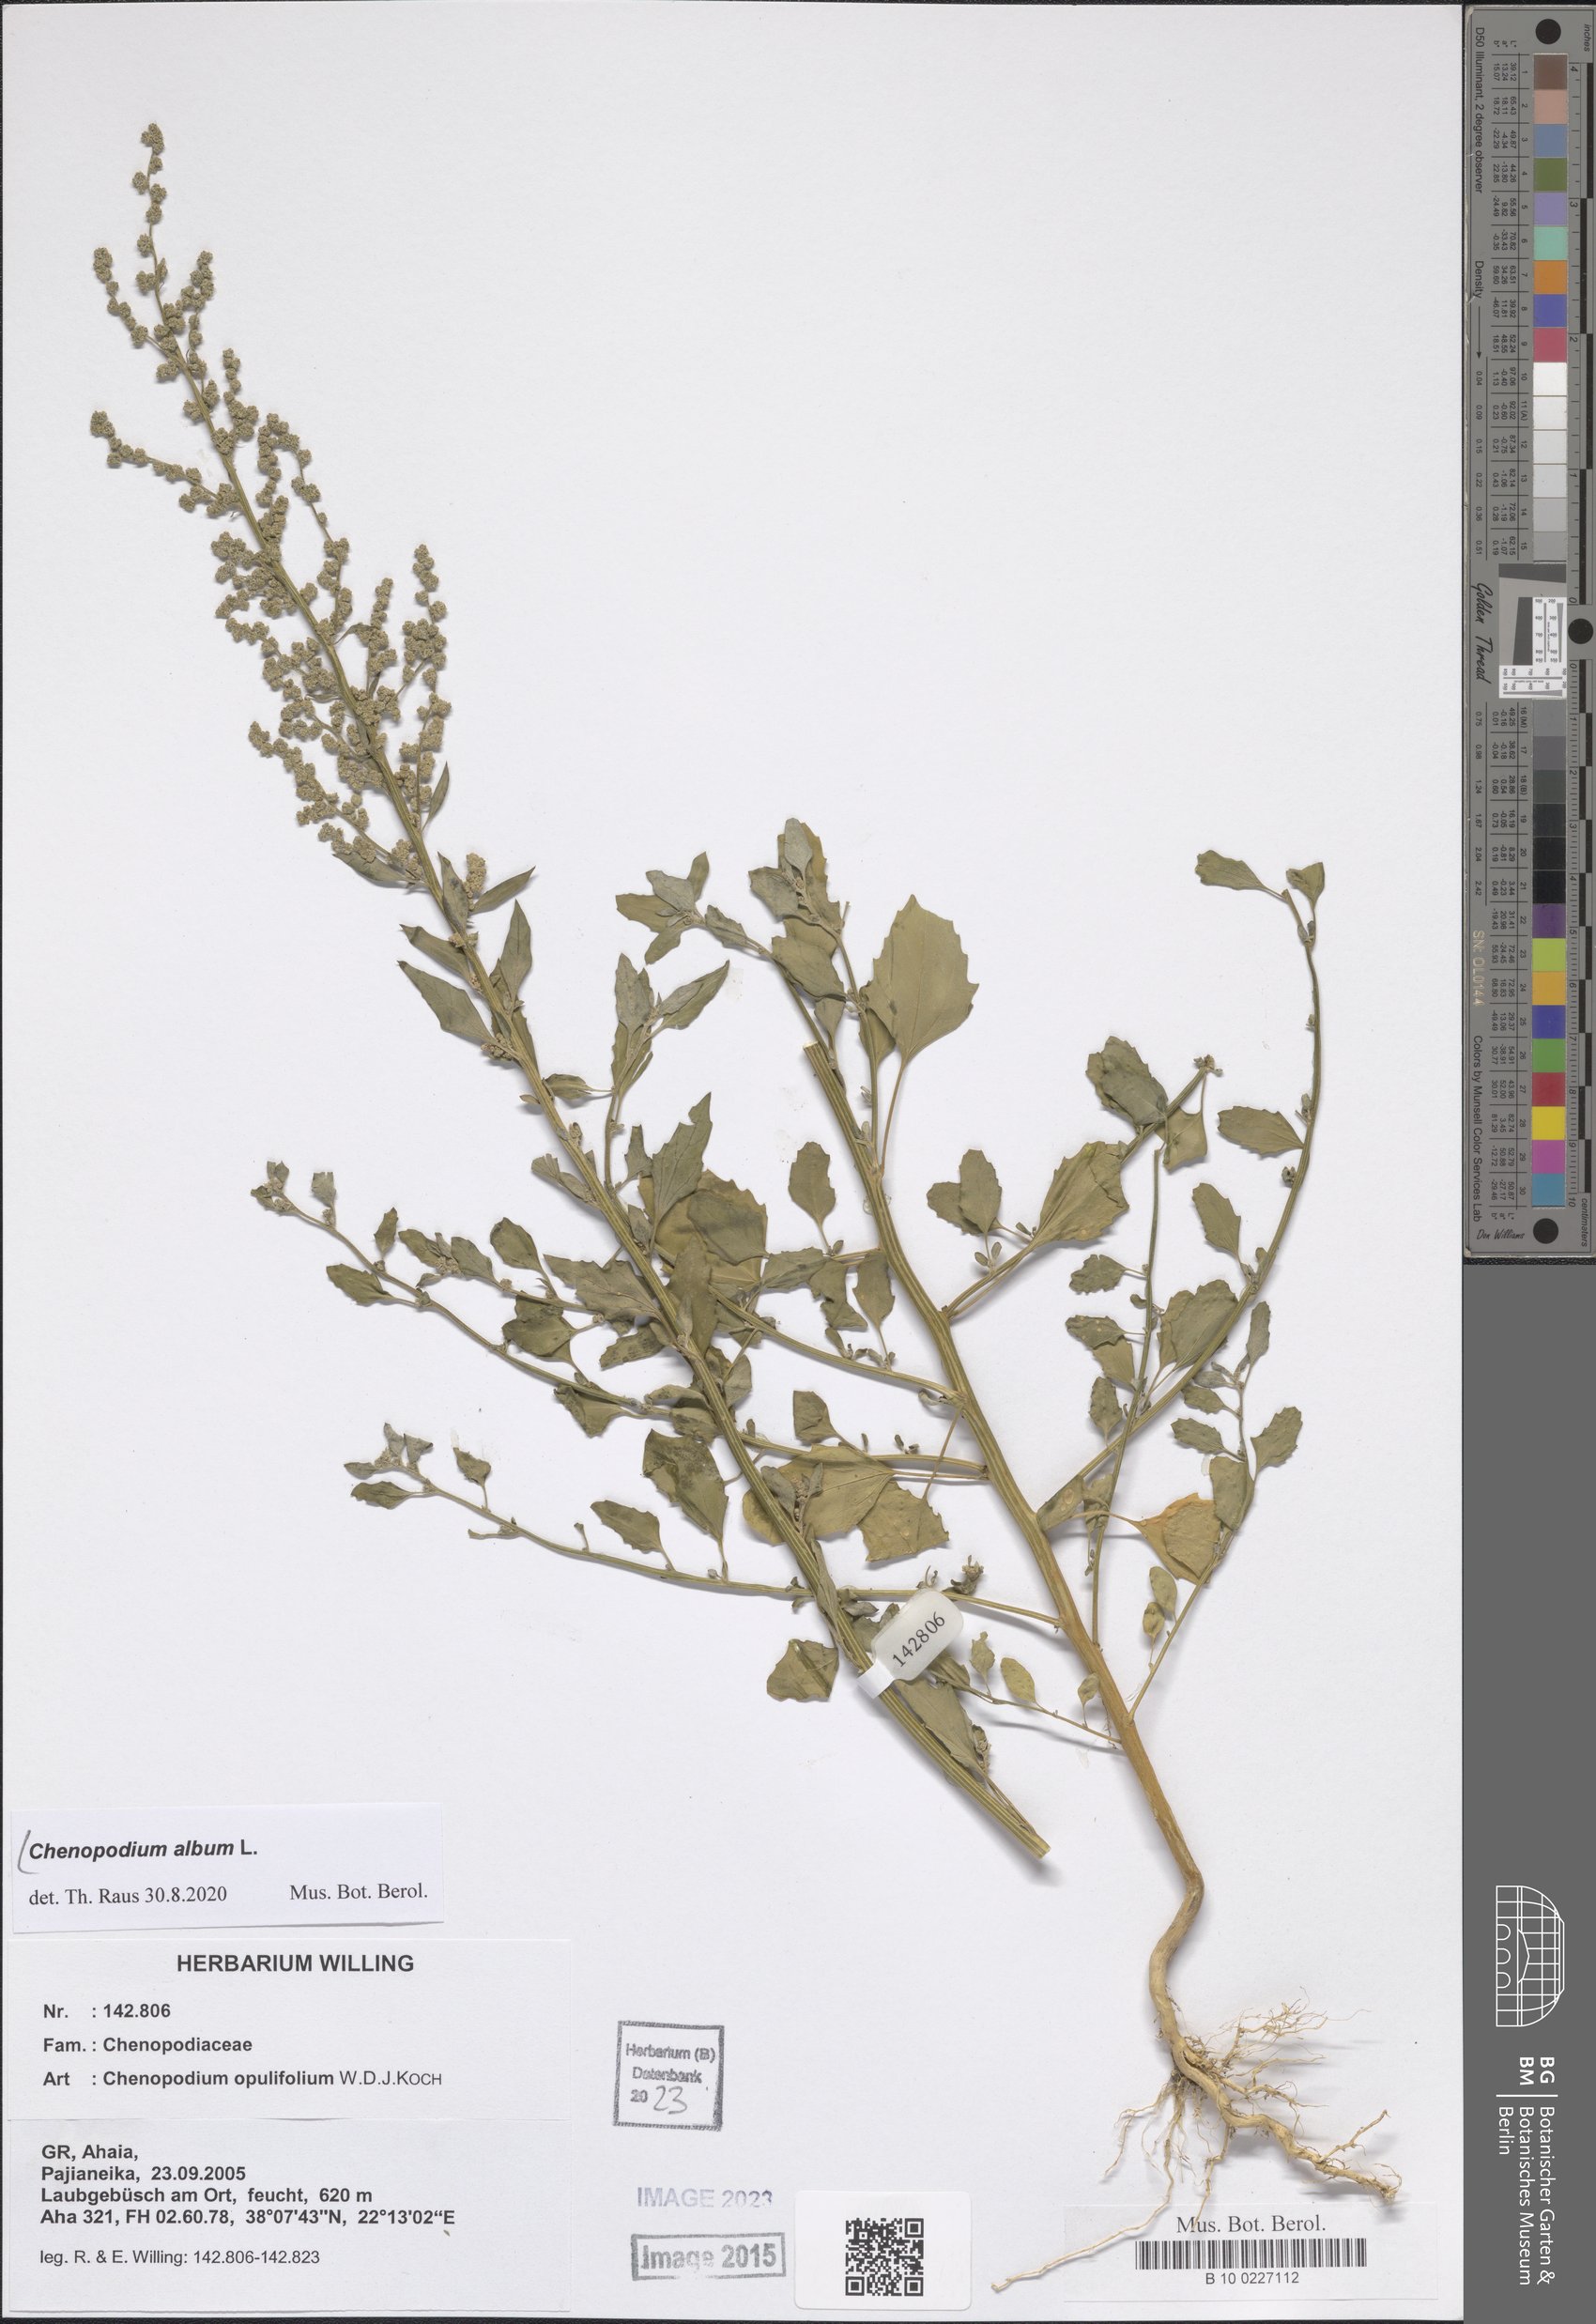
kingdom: Plantae
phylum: Tracheophyta
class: Magnoliopsida
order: Caryophyllales
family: Amaranthaceae
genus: Chenopodium
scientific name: Chenopodium album
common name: Fat-hen
